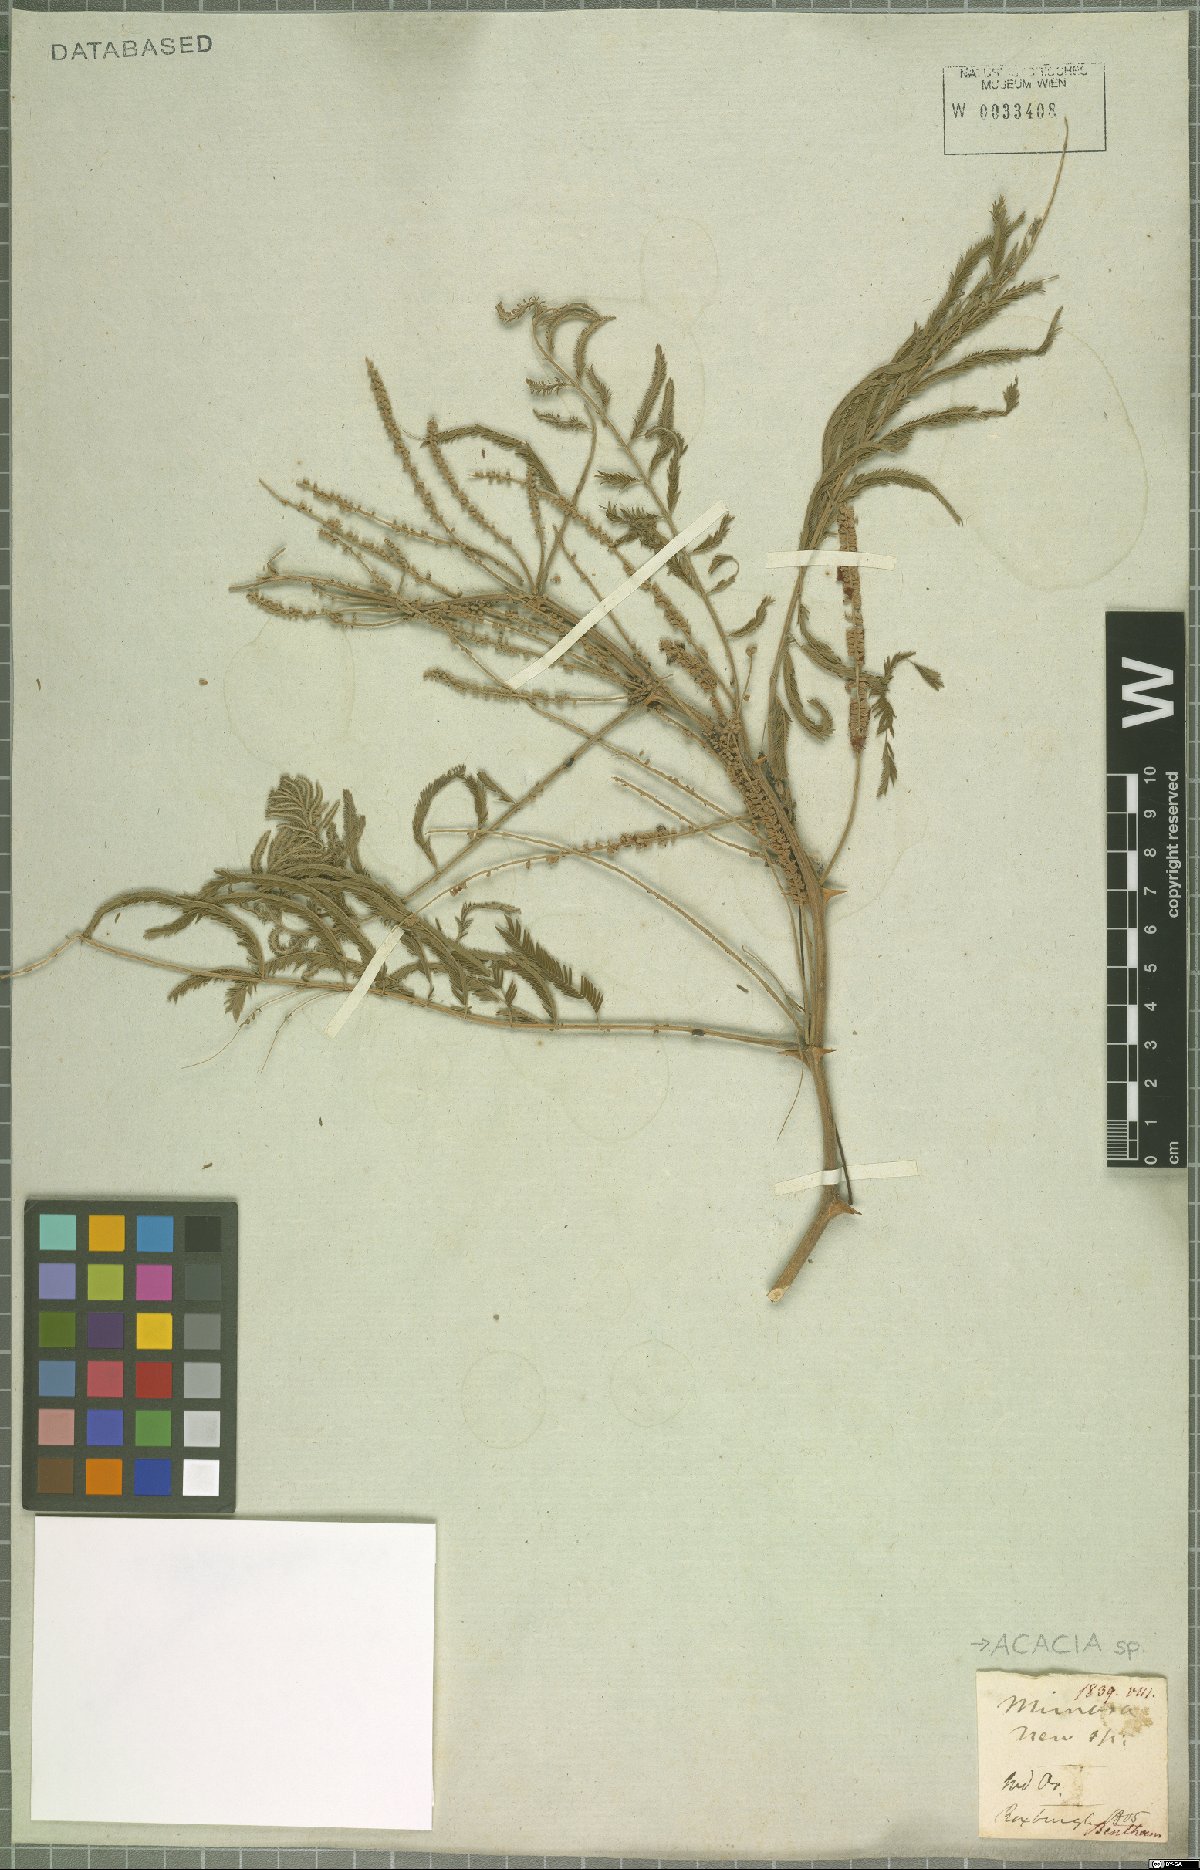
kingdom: Plantae
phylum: Tracheophyta
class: Magnoliopsida
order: Fabales
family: Fabaceae
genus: Acacia
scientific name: Acacia
